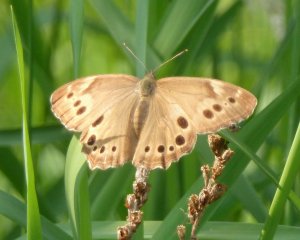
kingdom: Animalia
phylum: Arthropoda
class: Insecta
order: Lepidoptera
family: Nymphalidae
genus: Lethe
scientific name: Lethe anthedon
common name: Northern Pearly-Eye
